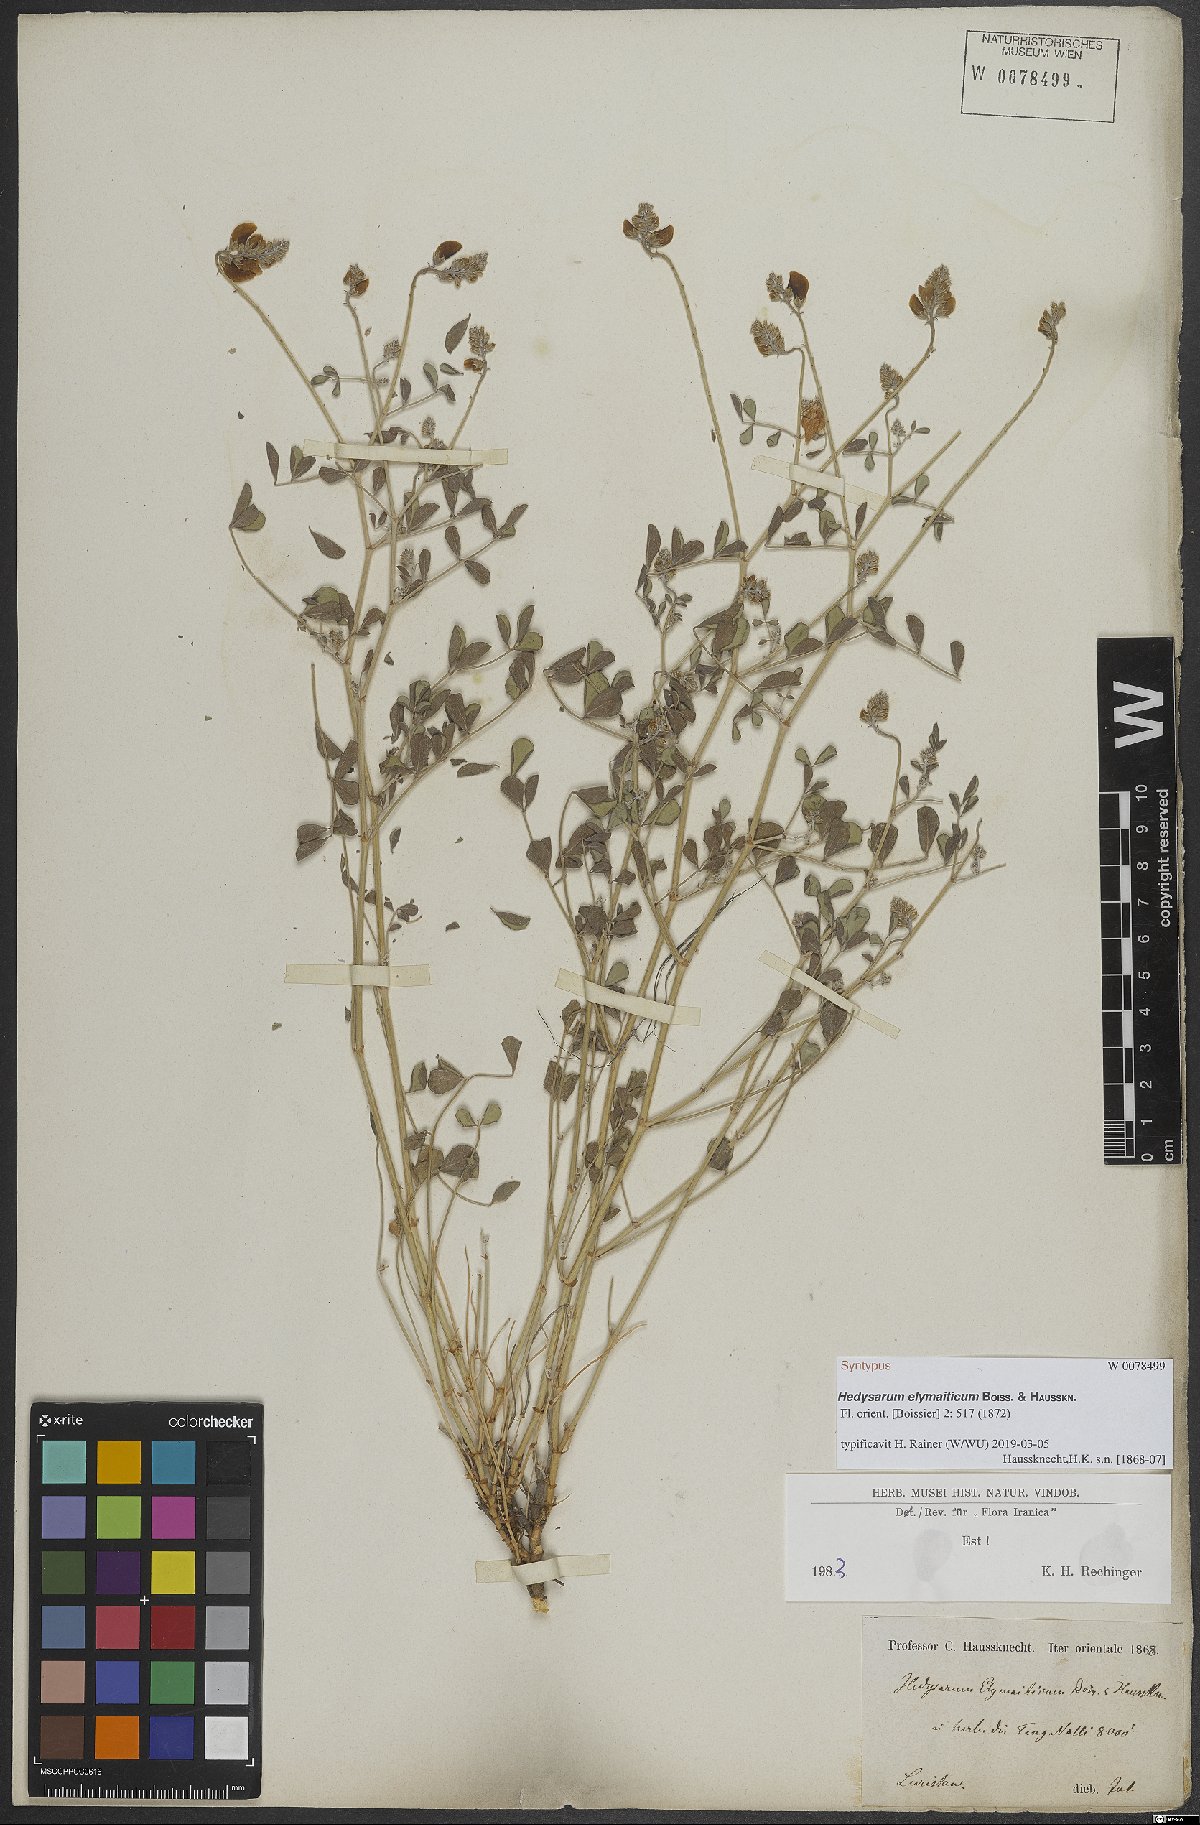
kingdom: Plantae
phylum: Tracheophyta
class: Magnoliopsida
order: Fabales
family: Fabaceae
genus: Hedysarum
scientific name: Hedysarum elymaiticum
